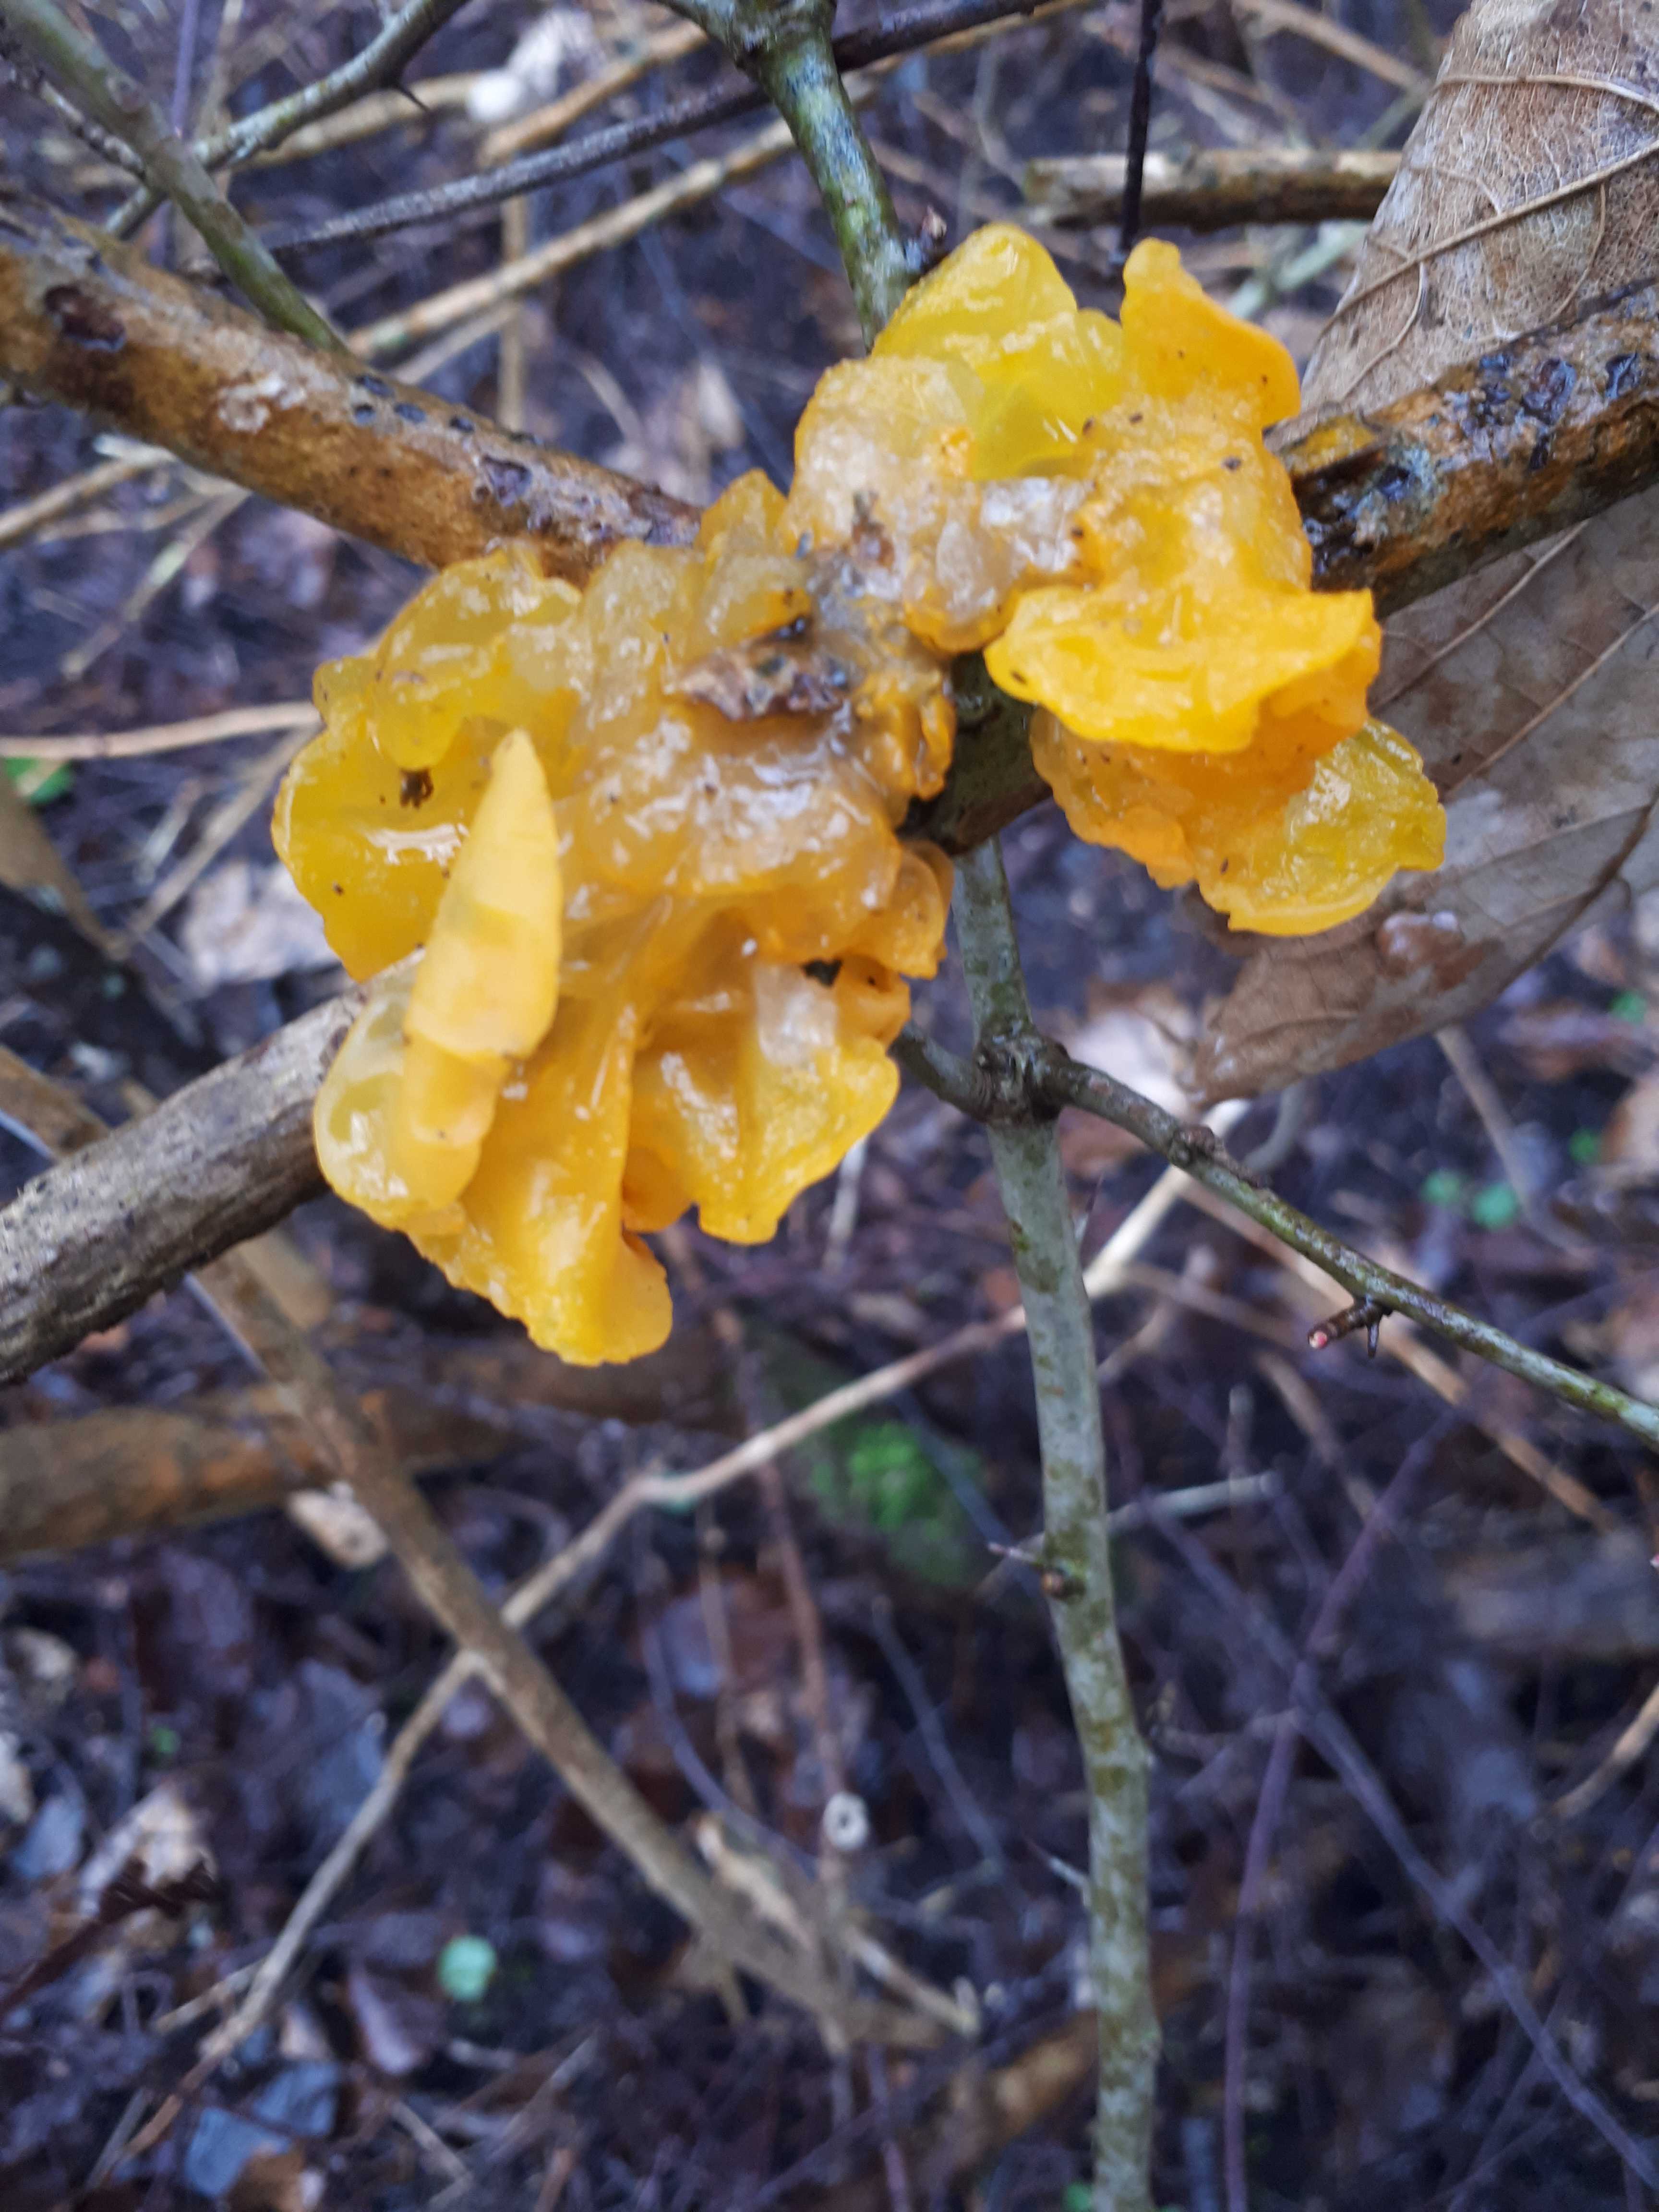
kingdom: Fungi
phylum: Basidiomycota
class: Tremellomycetes
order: Tremellales
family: Tremellaceae
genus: Tremella
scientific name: Tremella mesenterica
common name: gul bævresvamp
